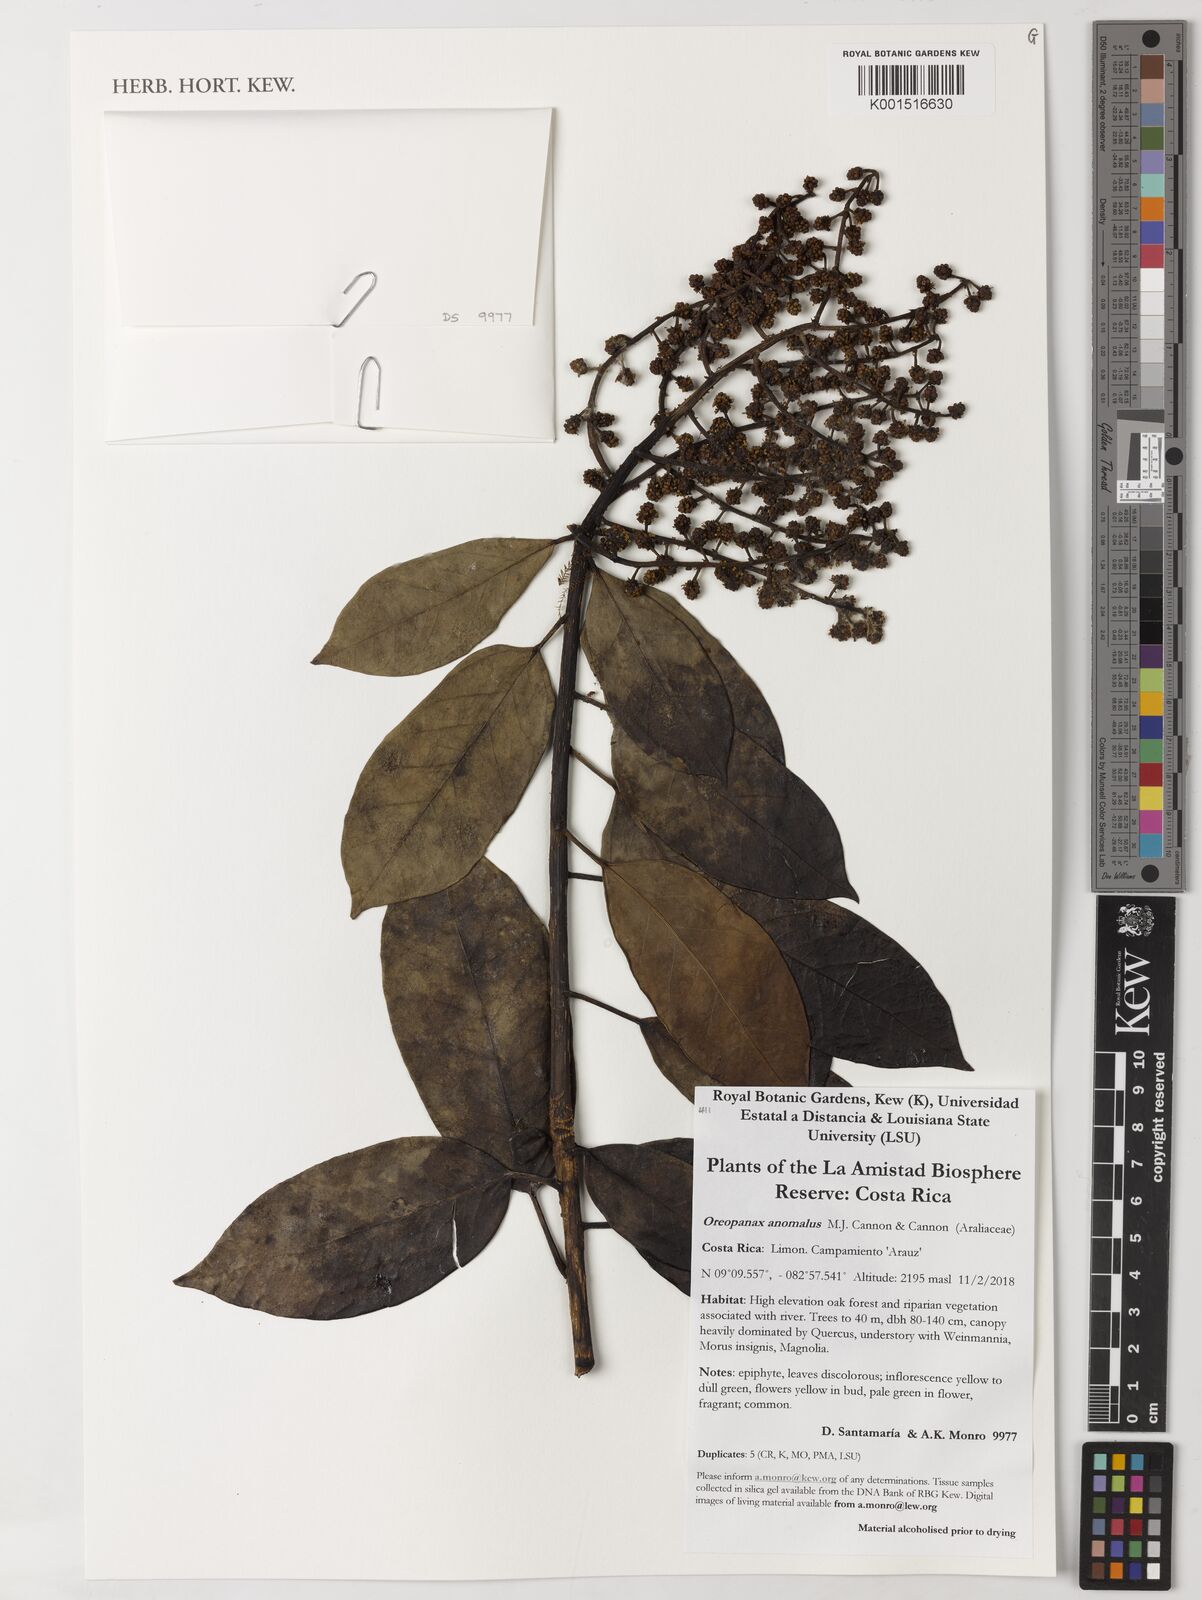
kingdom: Plantae
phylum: Tracheophyta
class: Magnoliopsida
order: Apiales
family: Araliaceae
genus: Oreopanax
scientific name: Oreopanax anomalus
